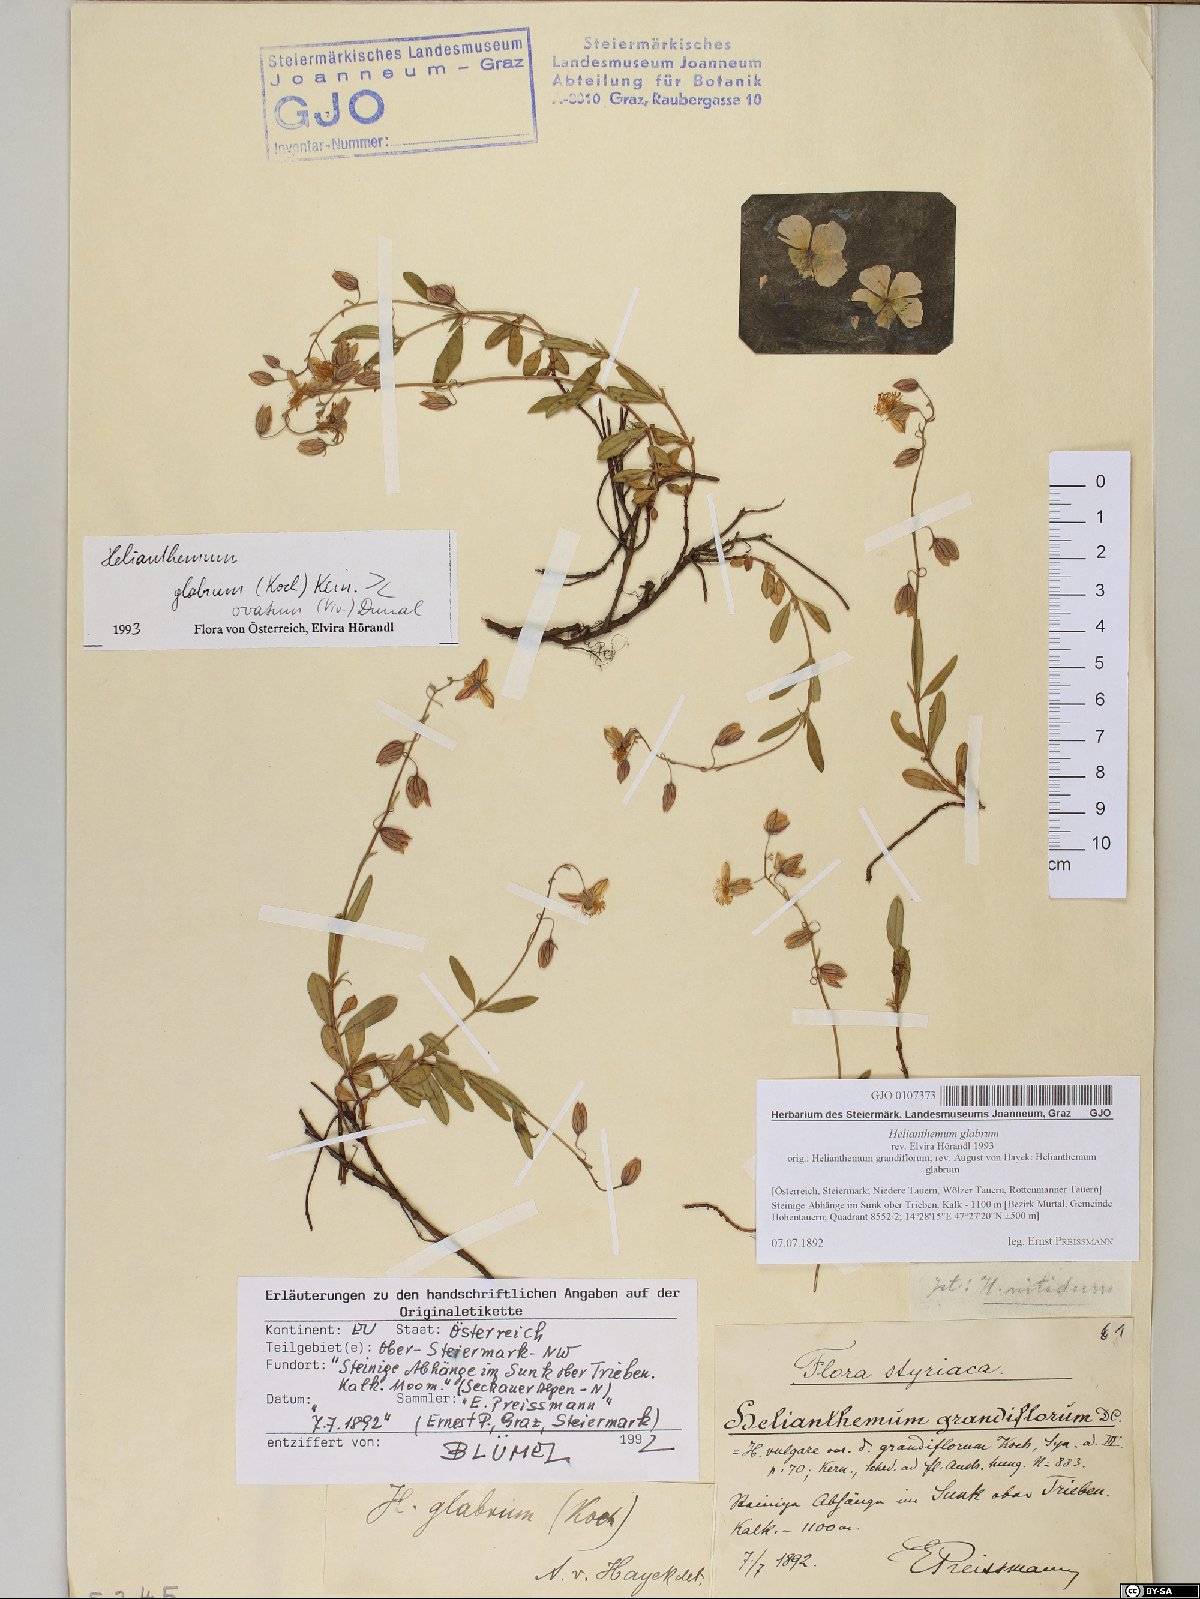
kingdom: Plantae
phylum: Tracheophyta
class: Magnoliopsida
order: Malvales
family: Cistaceae
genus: Helianthemum
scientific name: Helianthemum nummularium
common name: Common rock-rose
